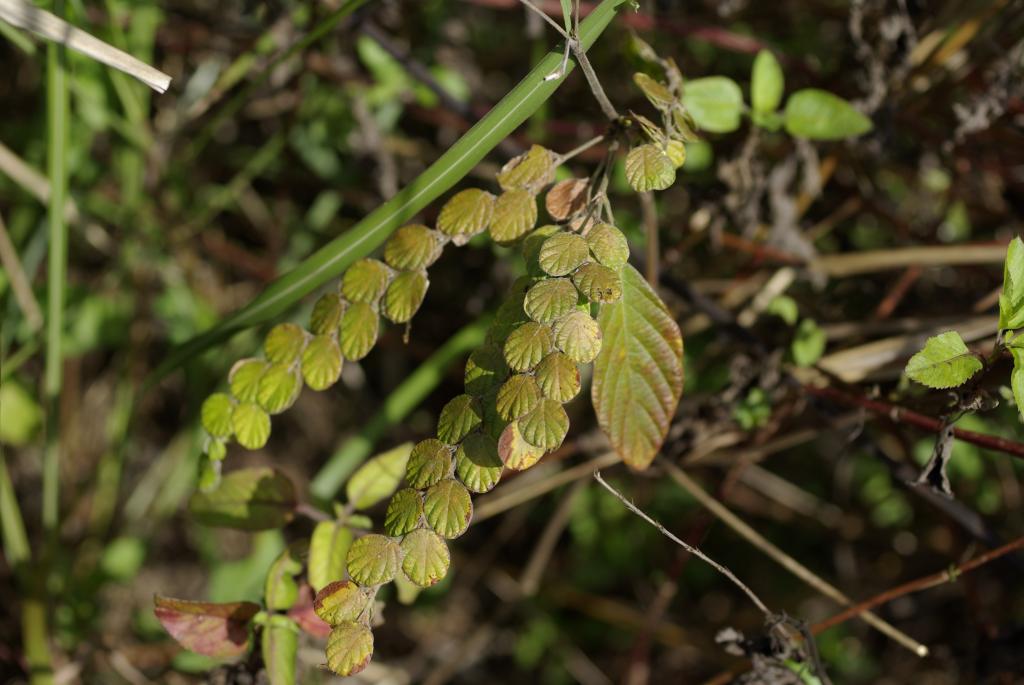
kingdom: Plantae
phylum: Tracheophyta
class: Magnoliopsida
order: Fabales
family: Fabaceae
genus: Phyllodium
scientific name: Phyllodium pulchellum
